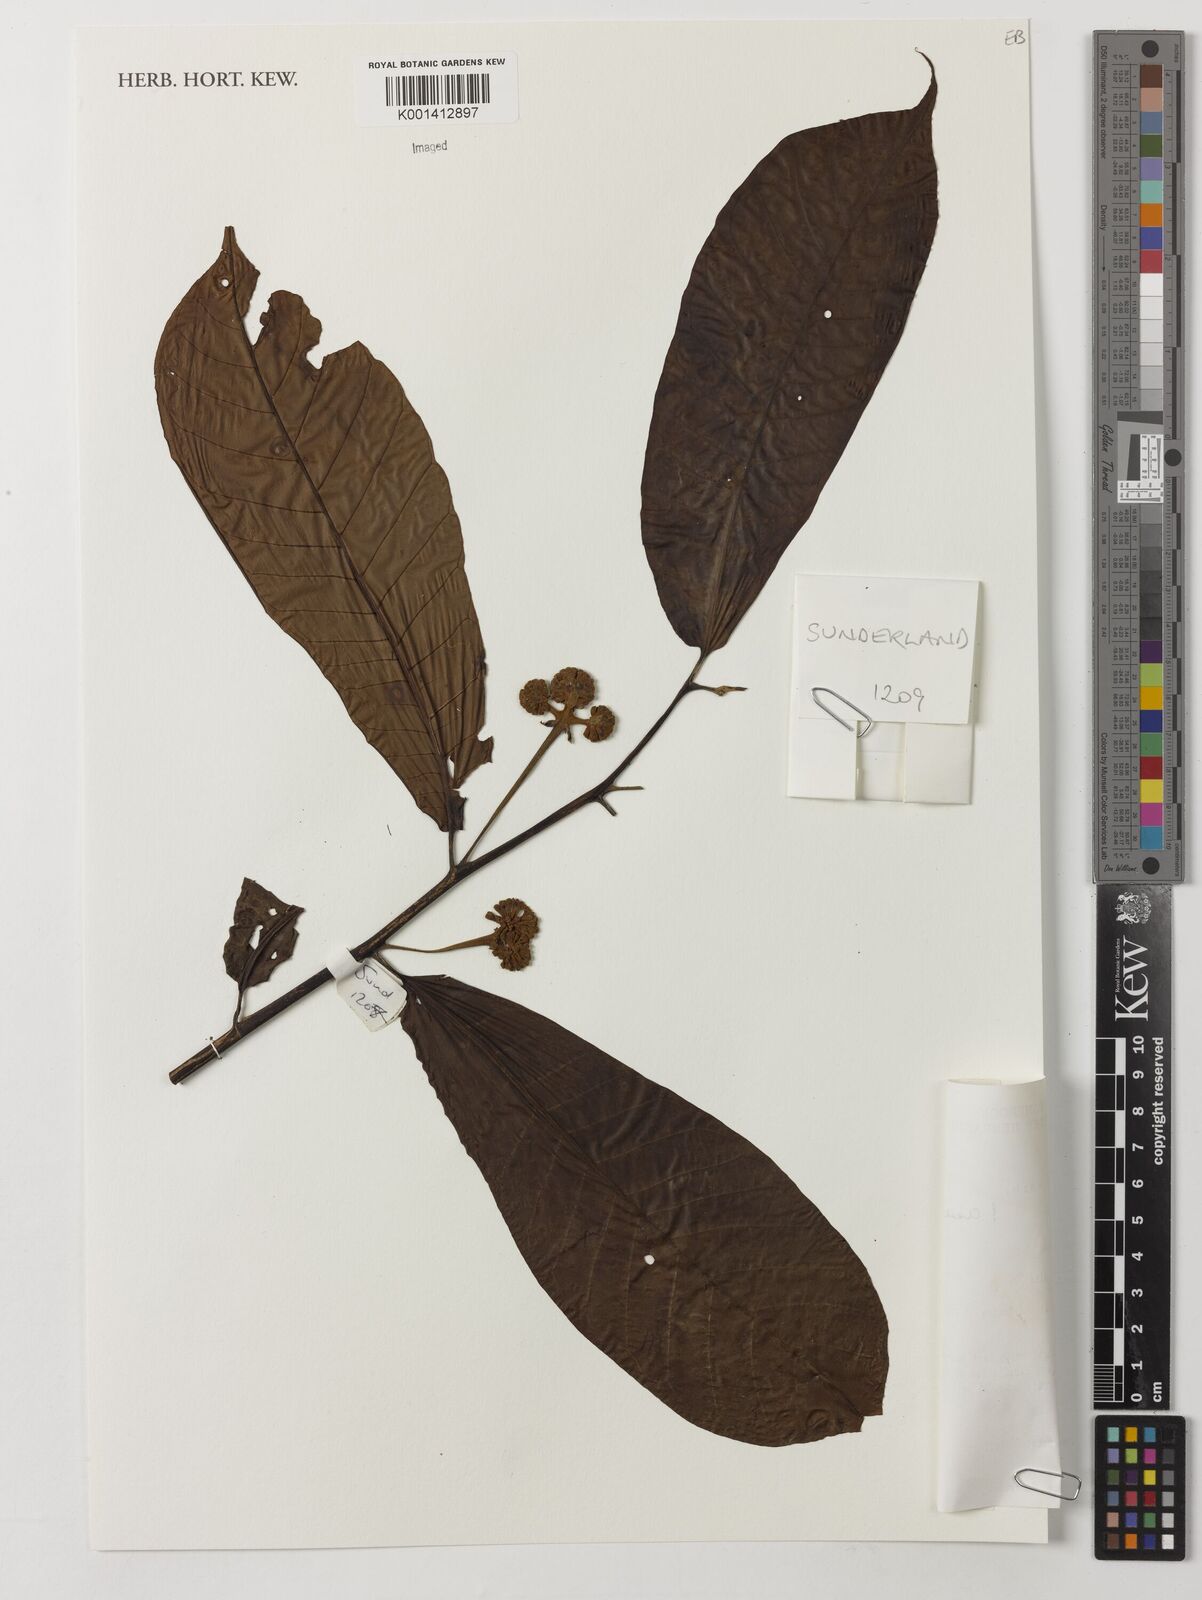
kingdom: Plantae
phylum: Tracheophyta
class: Magnoliopsida
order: Magnoliales
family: Myristicaceae
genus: Scyphocephalum
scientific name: Scyphocephalum mannii
